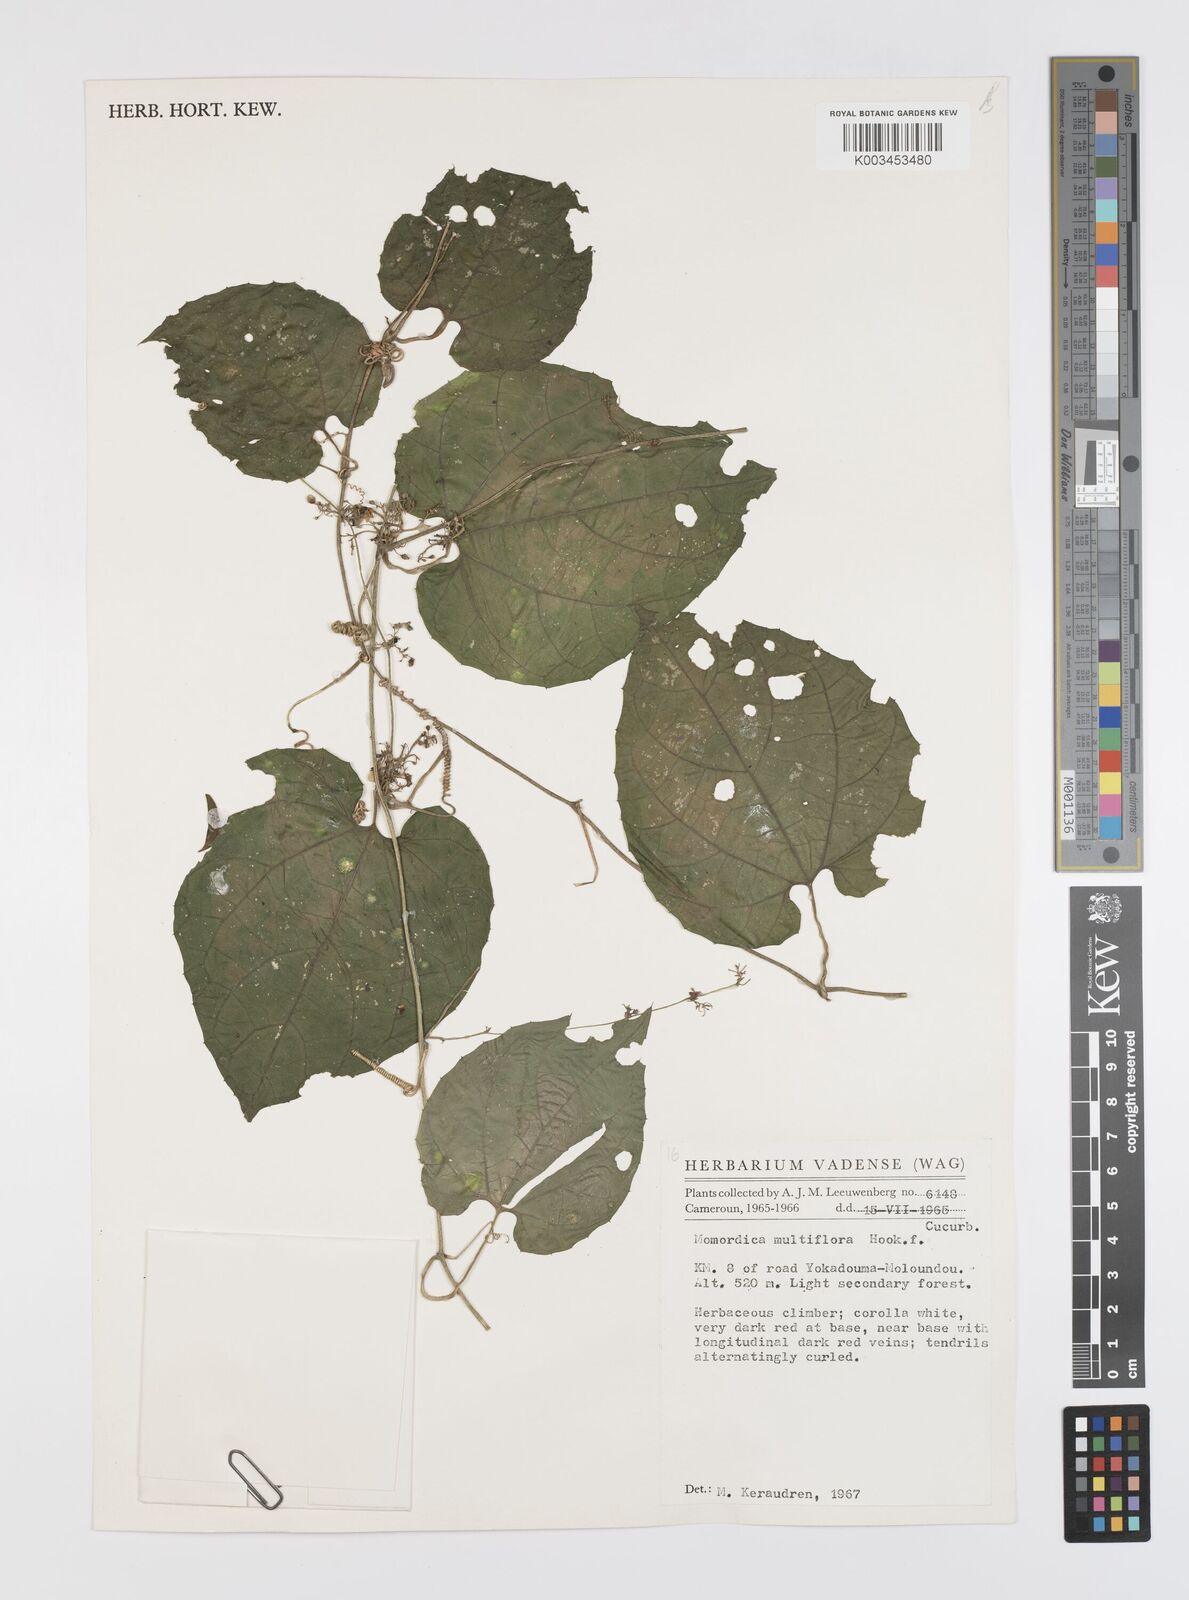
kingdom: Plantae
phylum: Tracheophyta
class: Magnoliopsida
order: Cucurbitales
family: Cucurbitaceae
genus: Momordica
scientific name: Momordica multiflora
